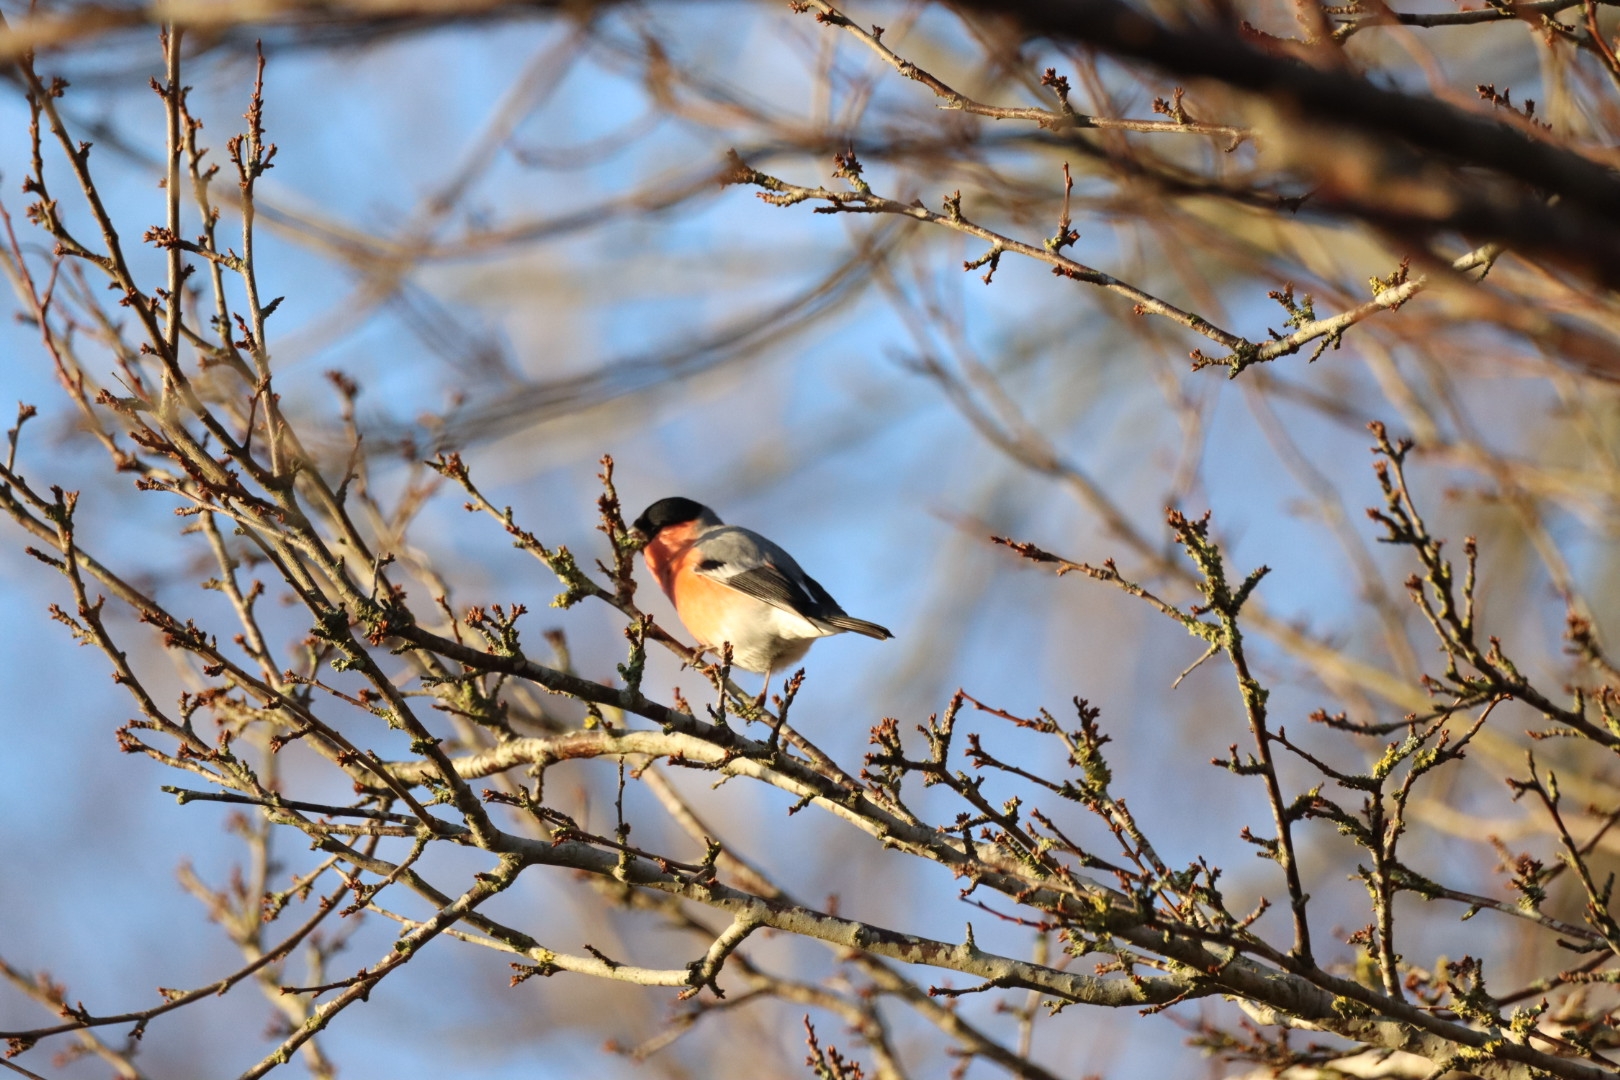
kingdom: Animalia
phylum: Chordata
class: Aves
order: Passeriformes
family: Fringillidae
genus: Pyrrhula
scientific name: Pyrrhula pyrrhula
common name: Dompap
